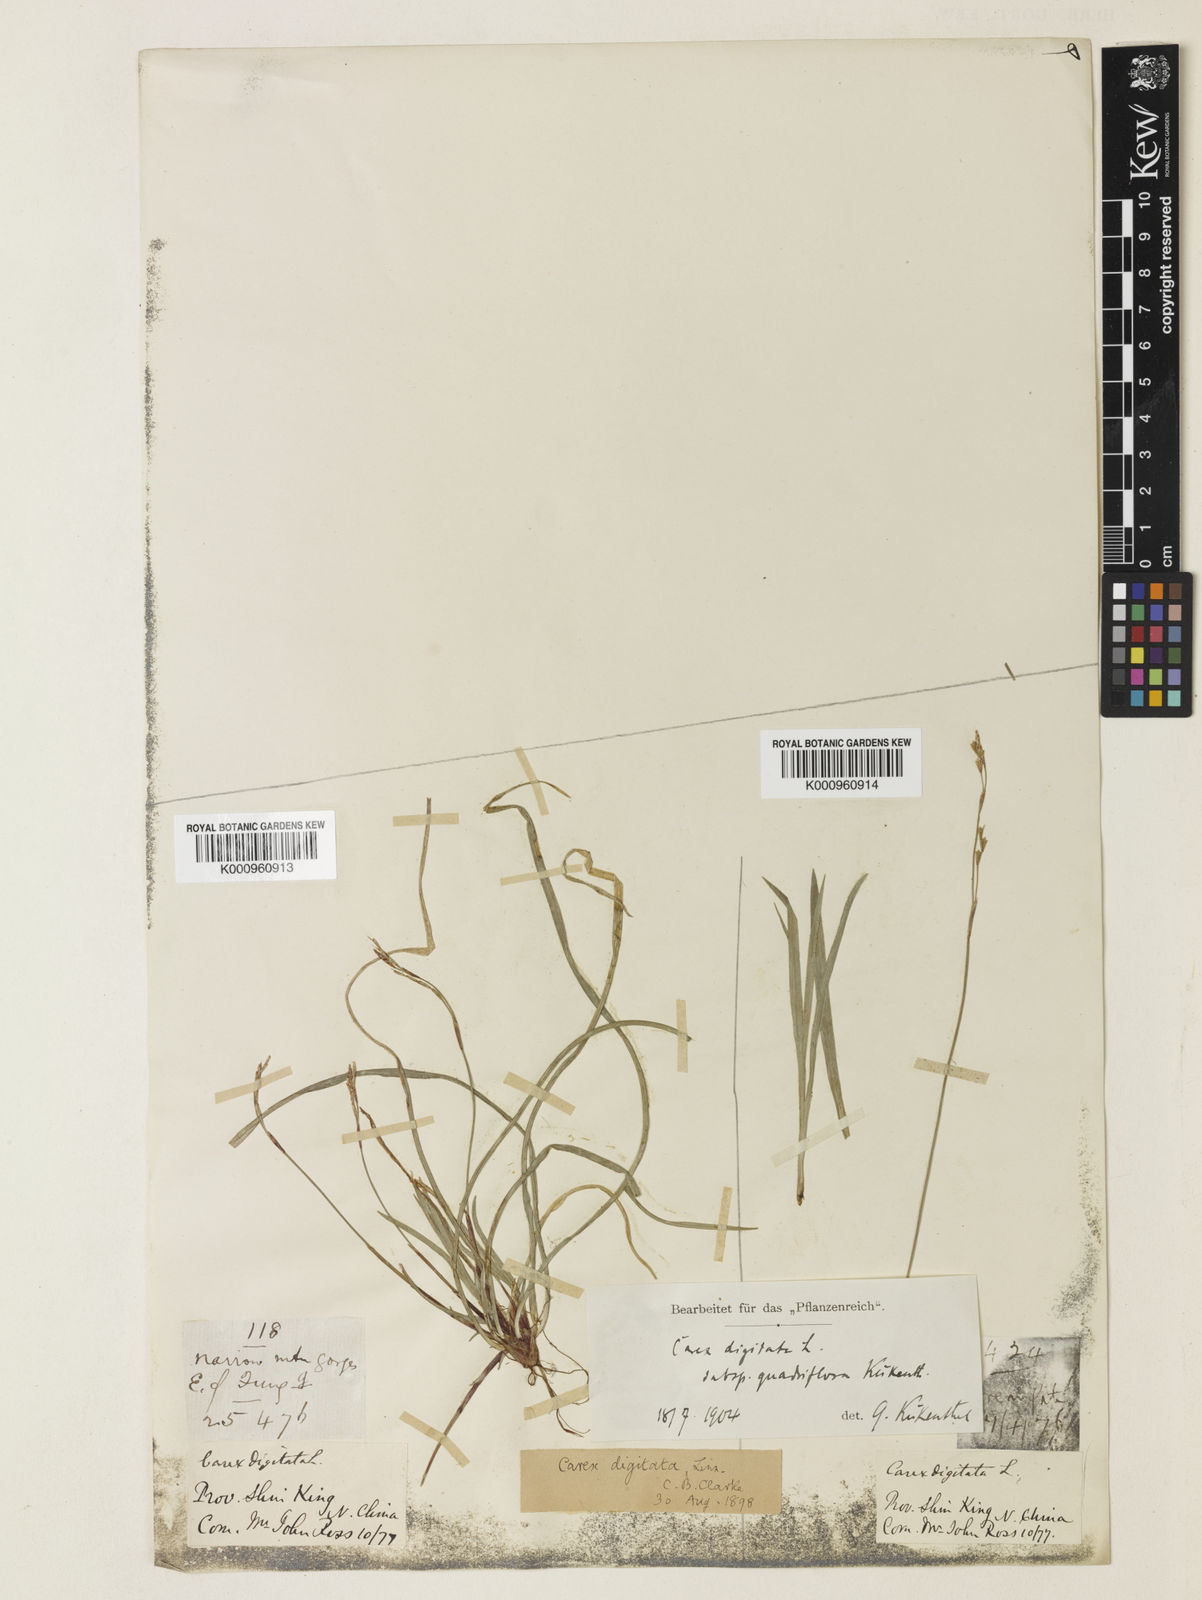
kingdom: Plantae
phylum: Tracheophyta
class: Liliopsida
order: Poales
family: Cyperaceae
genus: Carex
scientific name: Carex digitata
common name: Fingered sedge
